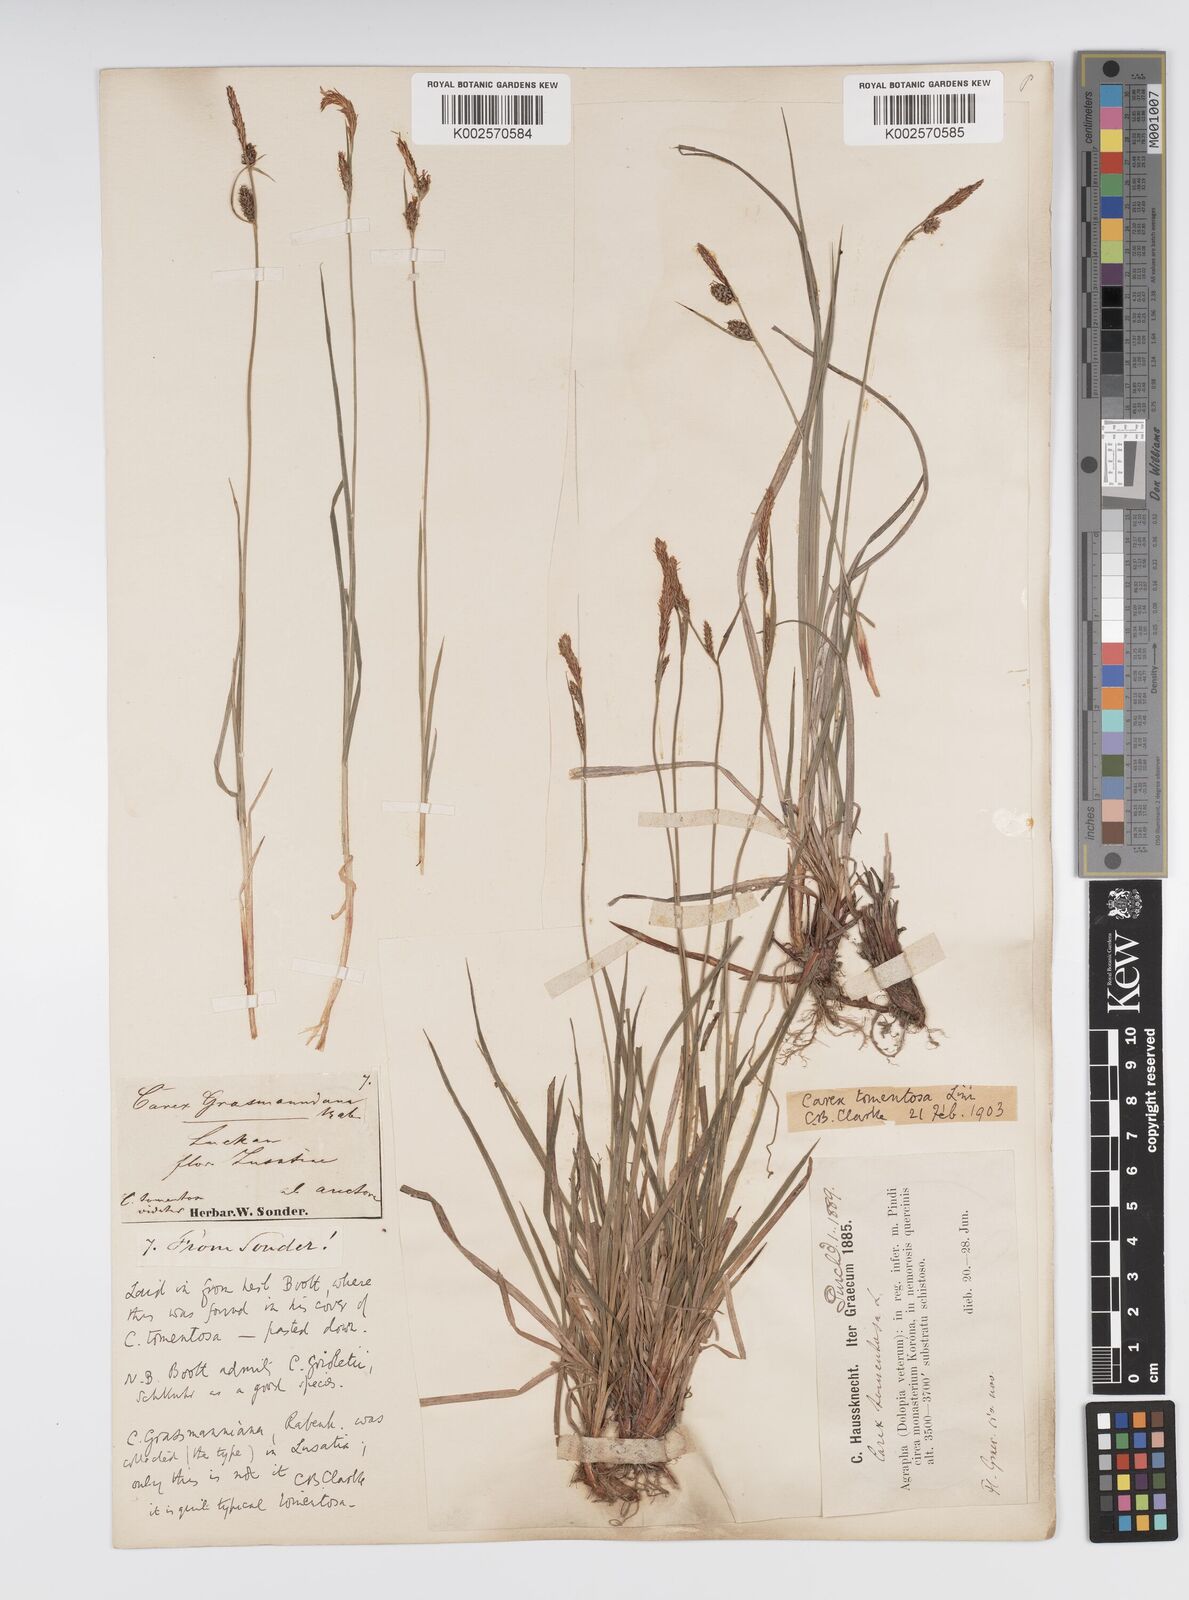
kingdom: Plantae
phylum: Tracheophyta
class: Liliopsida
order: Poales
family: Cyperaceae
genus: Carex
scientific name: Carex montana
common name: Soft-leaved sedge
